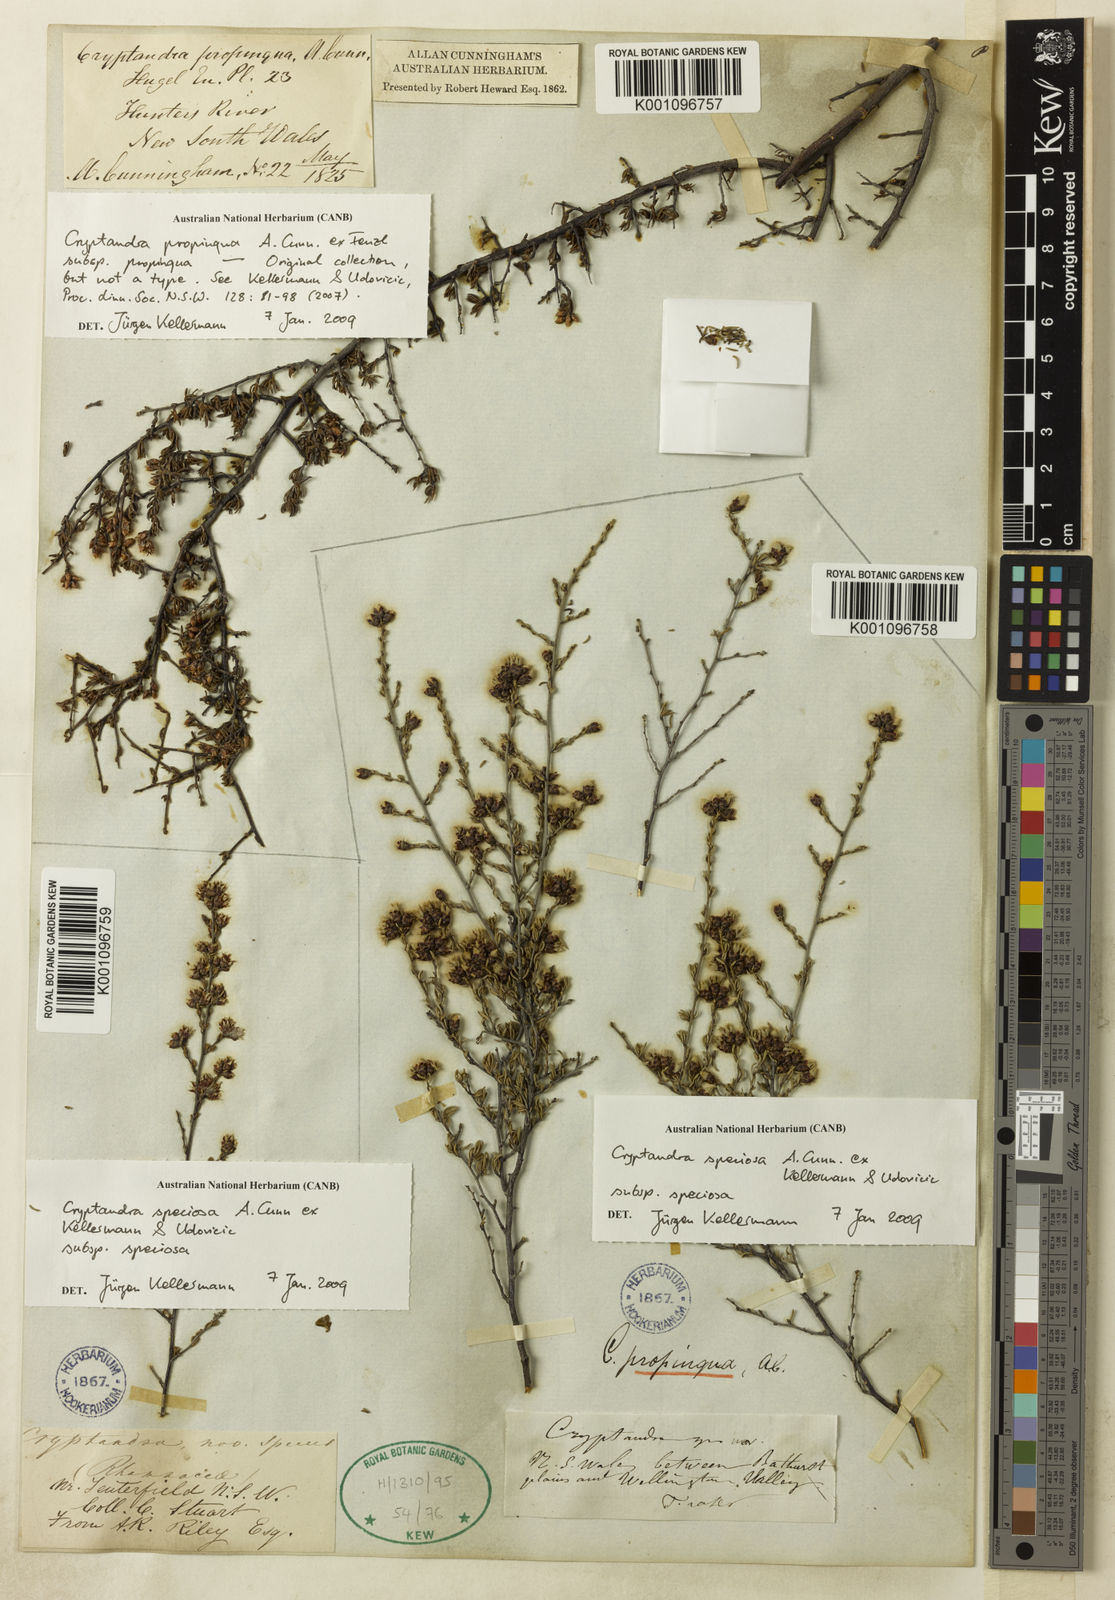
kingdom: Plantae
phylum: Tracheophyta
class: Magnoliopsida
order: Rosales
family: Rhamnaceae
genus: Cryptandra
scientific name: Cryptandra propinqua
